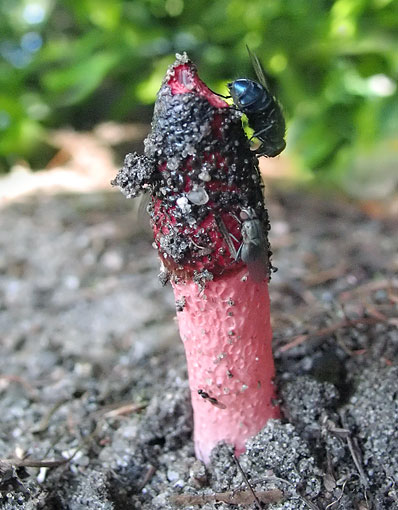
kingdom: Fungi
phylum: Basidiomycota
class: Agaricomycetes
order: Phallales
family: Phallaceae
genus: Mutinus
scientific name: Mutinus ravenelii
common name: rød stinksvamp
